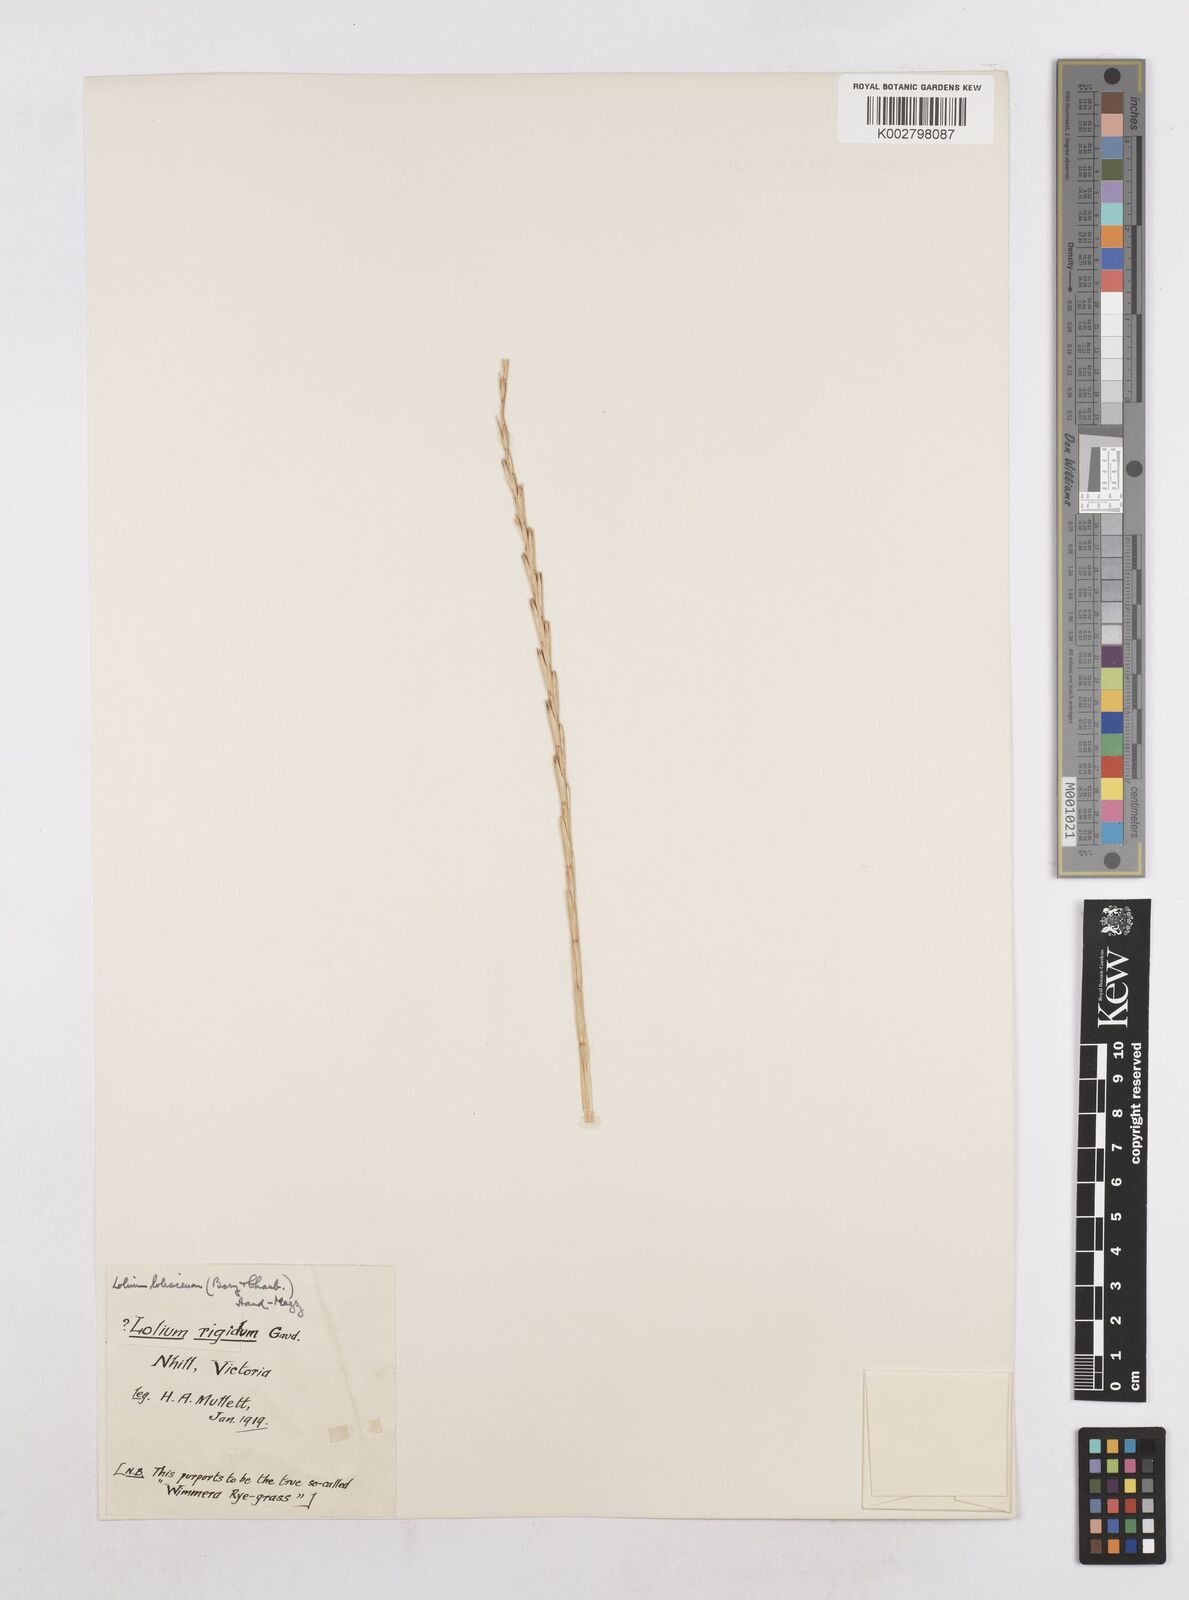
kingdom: Plantae
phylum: Tracheophyta
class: Liliopsida
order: Poales
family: Poaceae
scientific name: Poaceae
